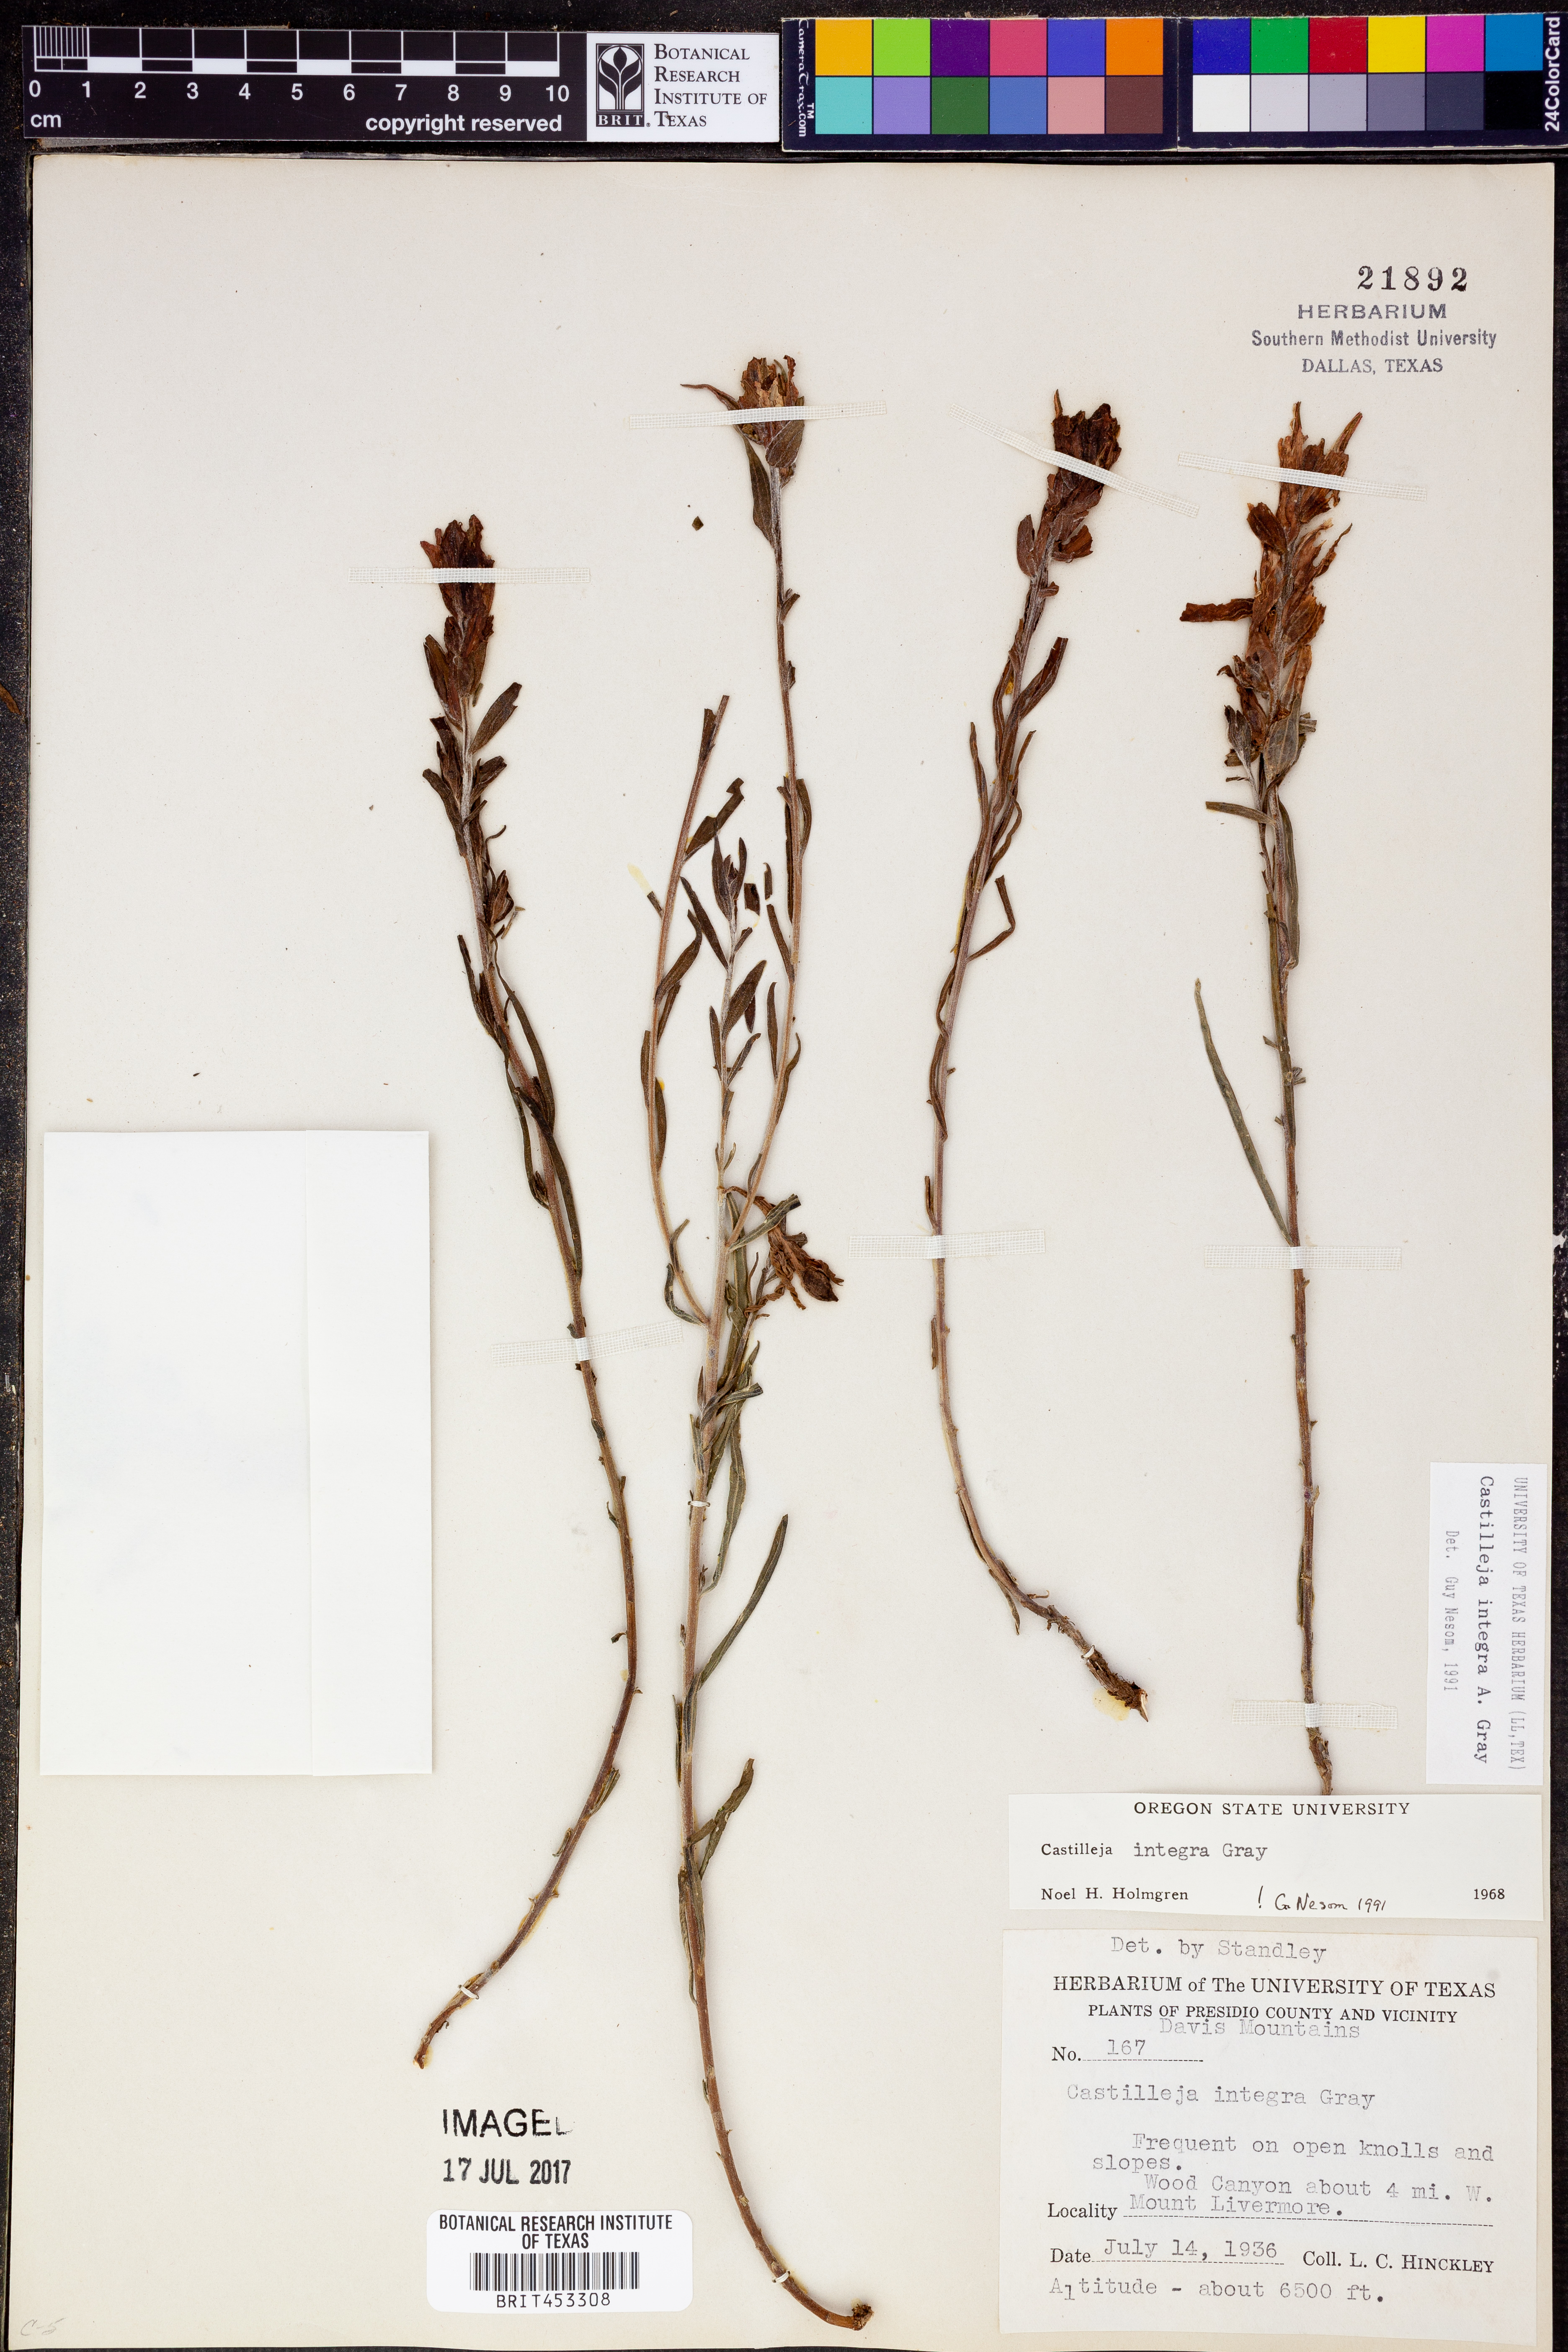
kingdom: Plantae
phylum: Tracheophyta
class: Magnoliopsida
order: Lamiales
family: Orobanchaceae
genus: Castilleja
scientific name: Castilleja integra
